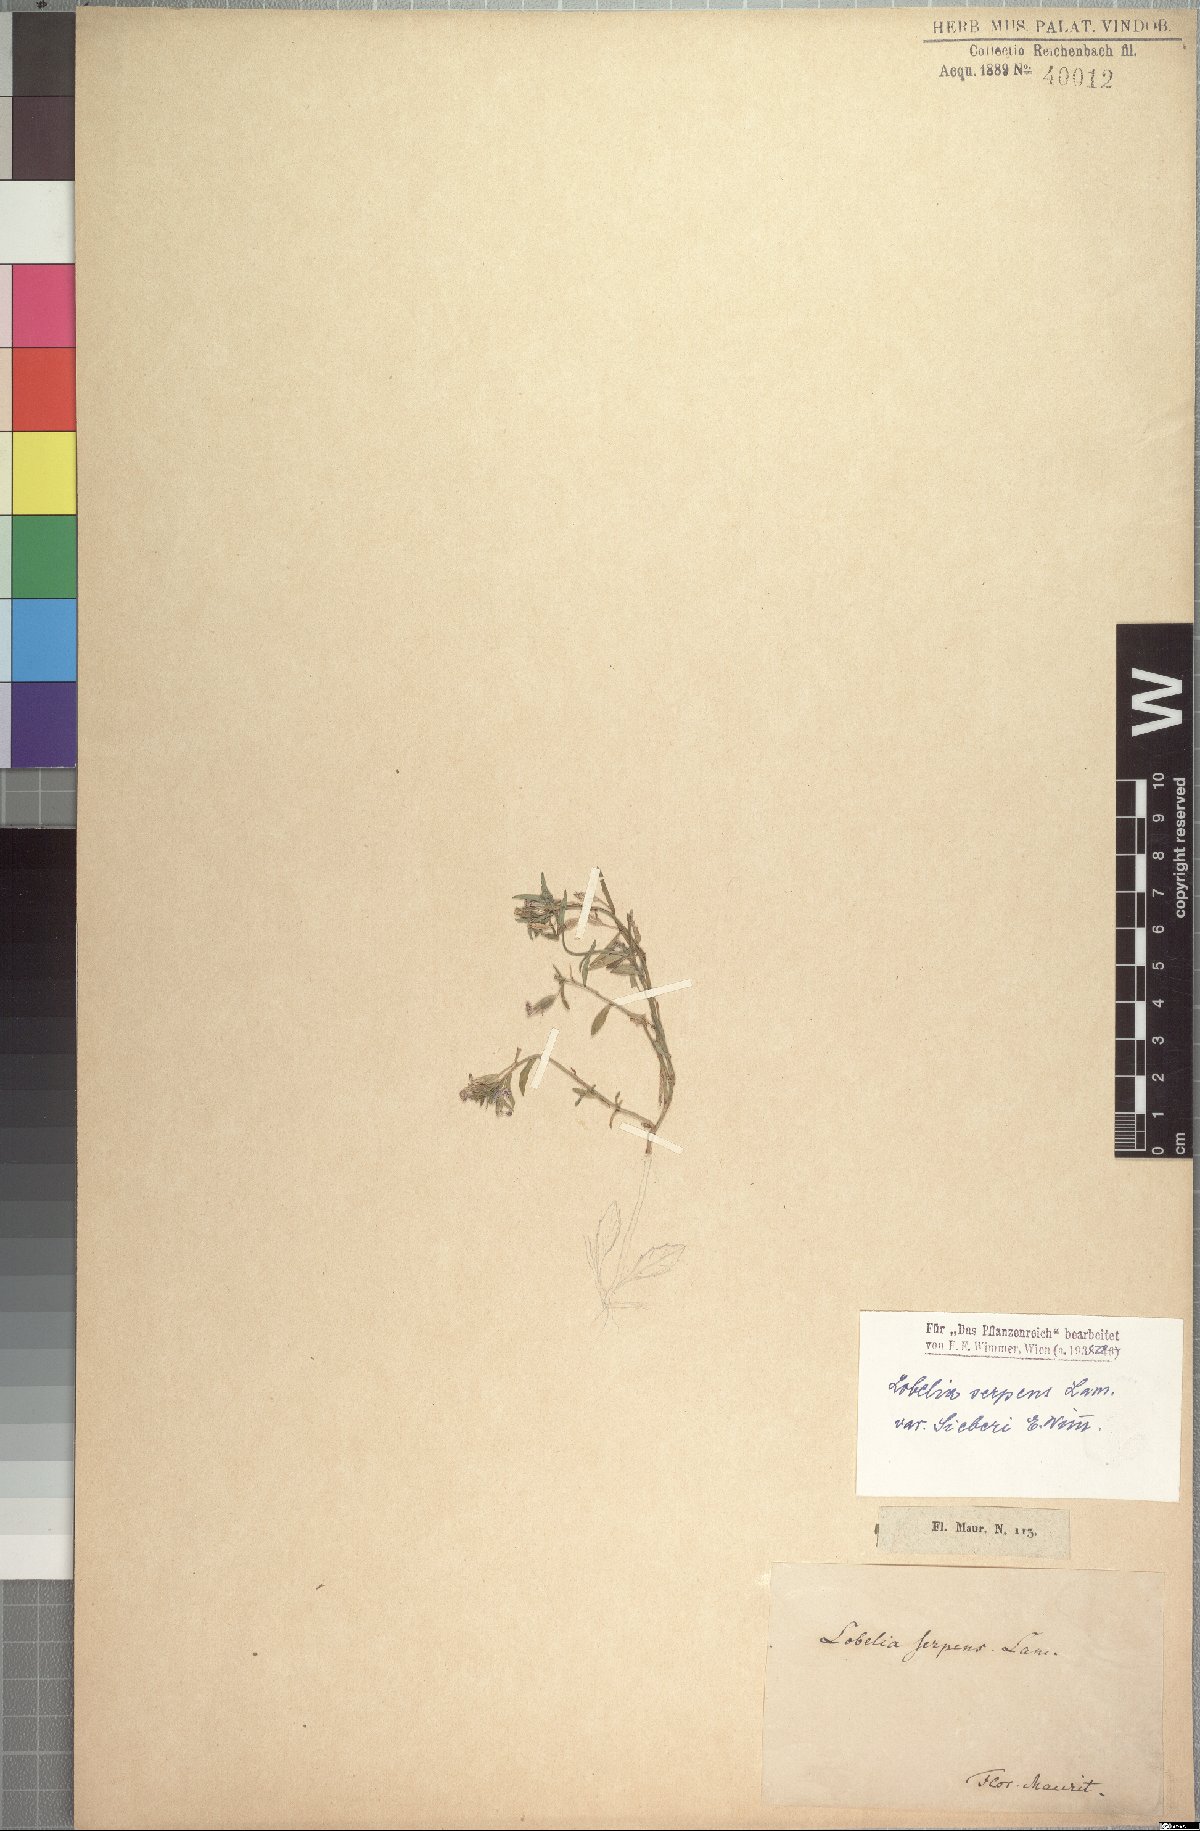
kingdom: Plantae
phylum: Tracheophyta
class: Magnoliopsida
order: Asterales
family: Campanulaceae
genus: Lobelia
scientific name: Lobelia serpens
